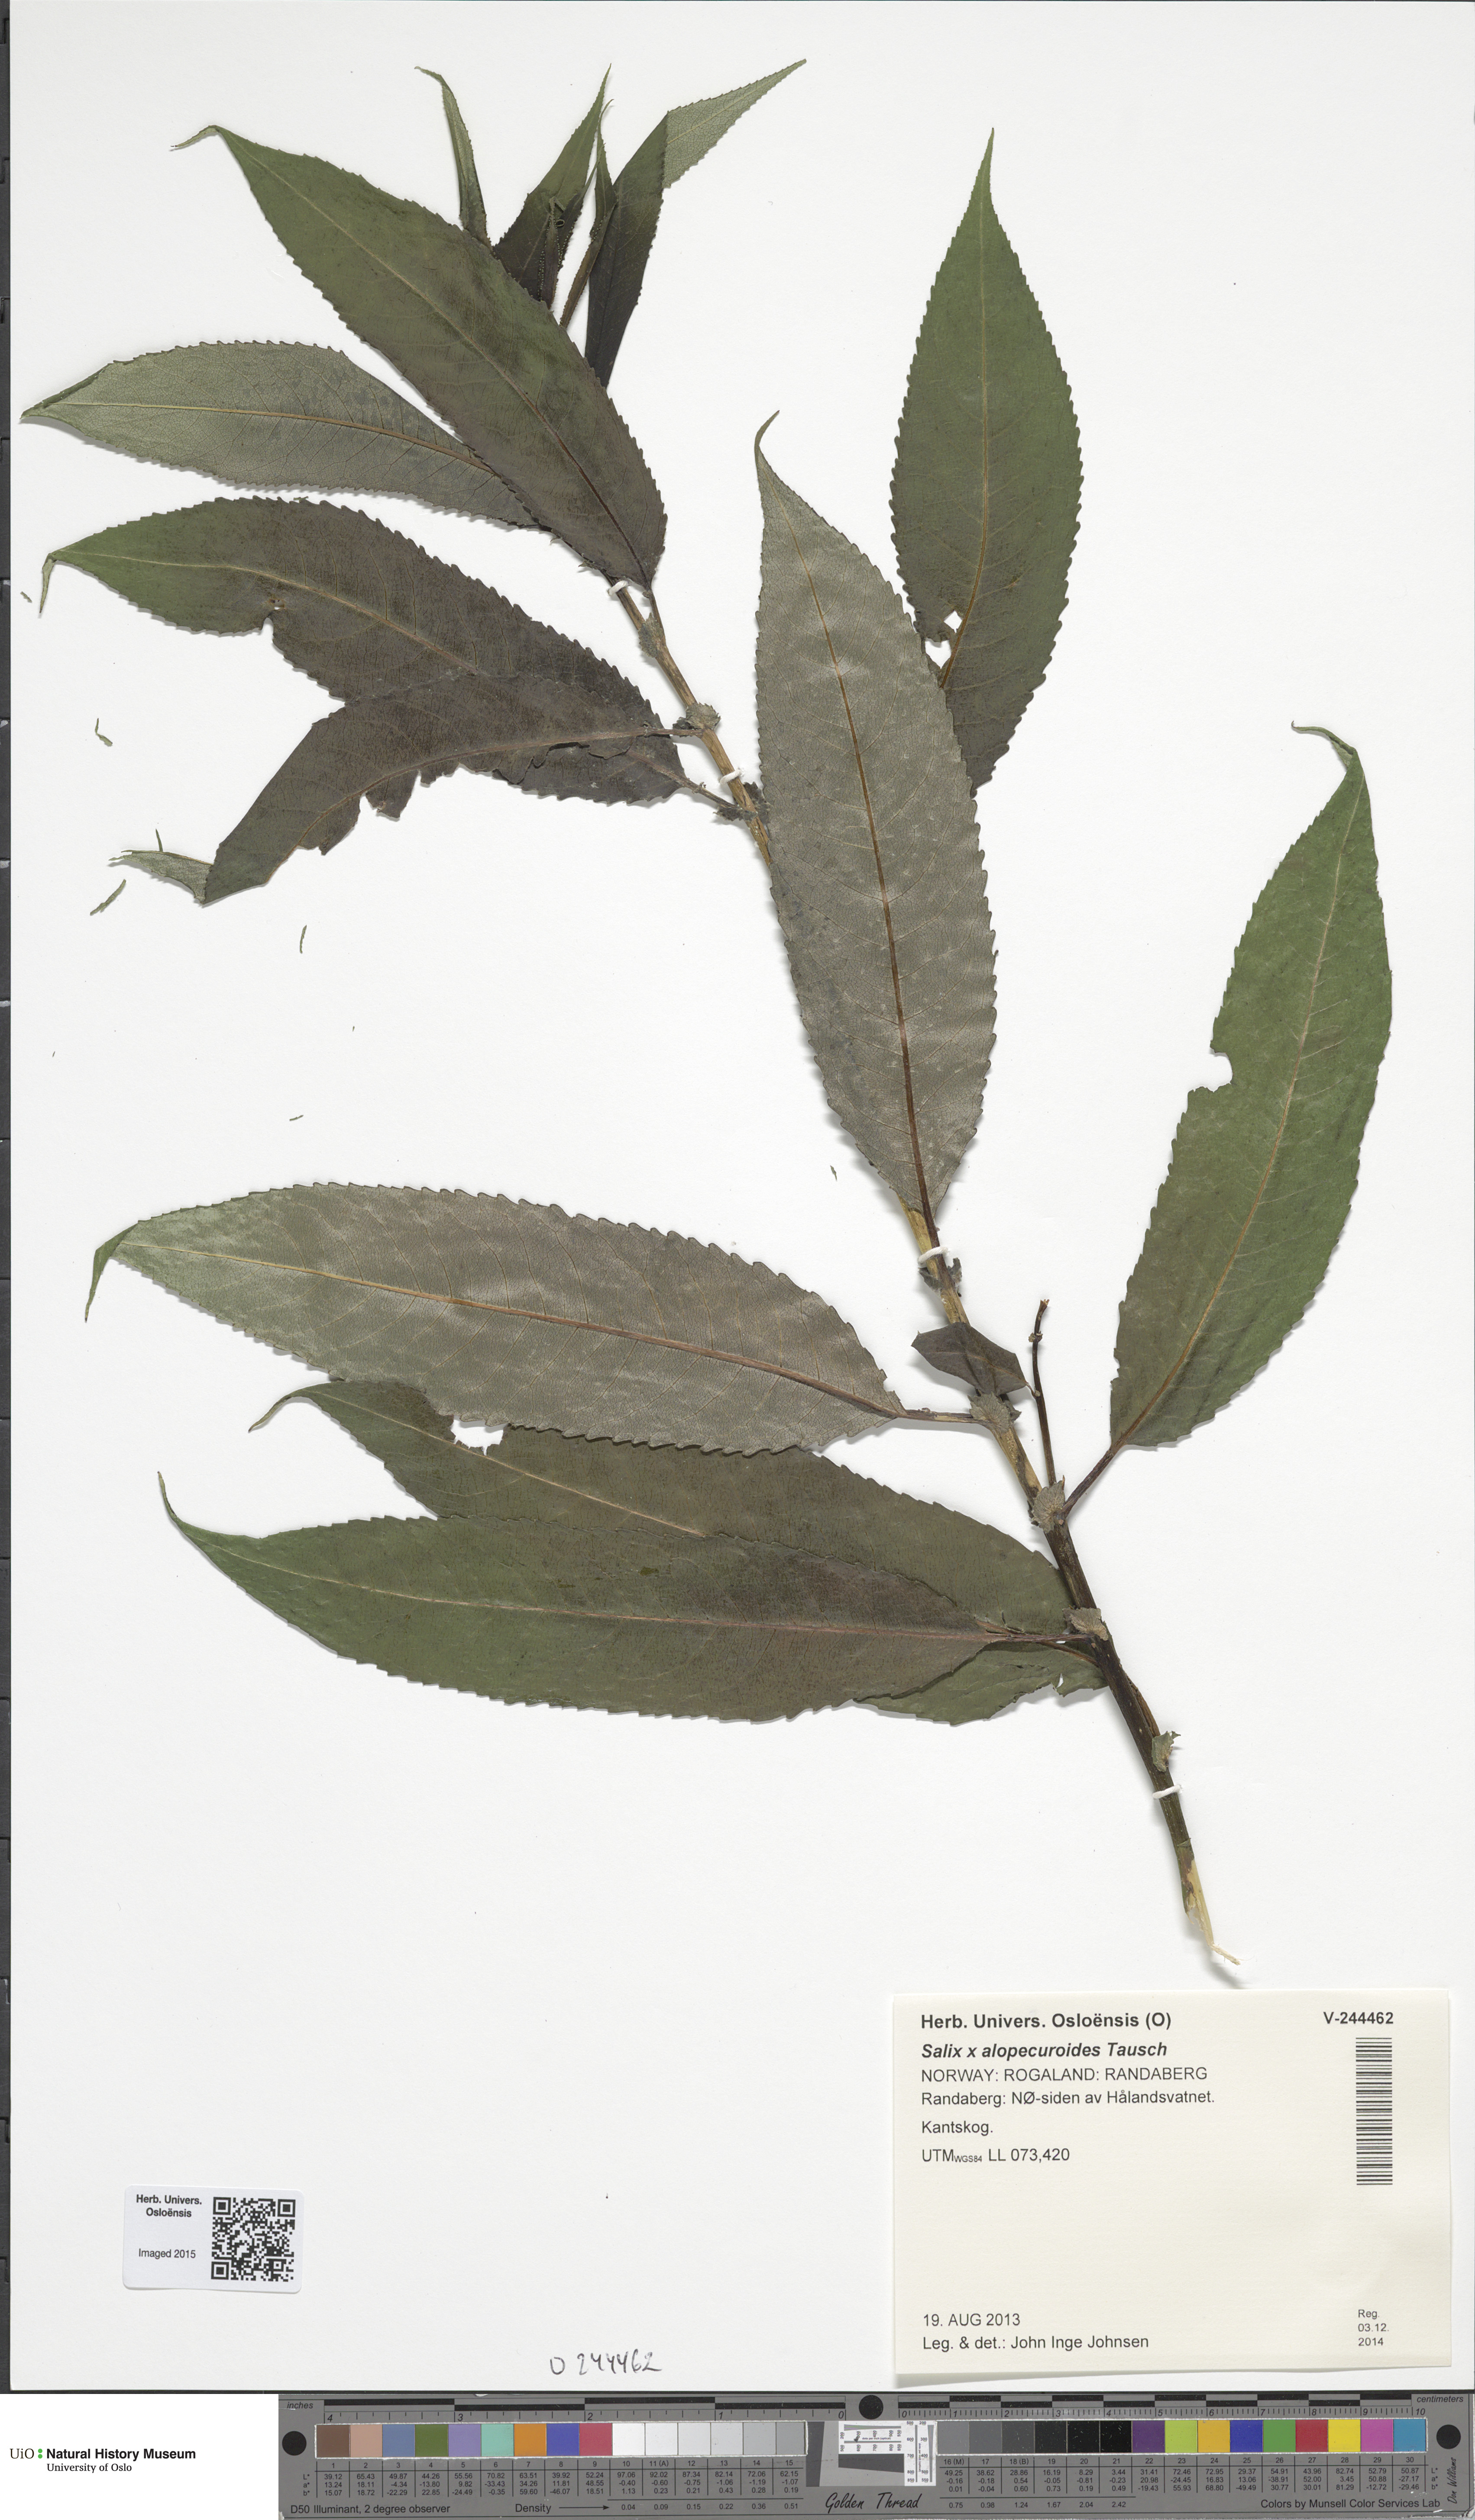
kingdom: Plantae
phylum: Tracheophyta
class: Magnoliopsida
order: Malpighiales
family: Salicaceae
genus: Salix
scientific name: Salix speciosa
